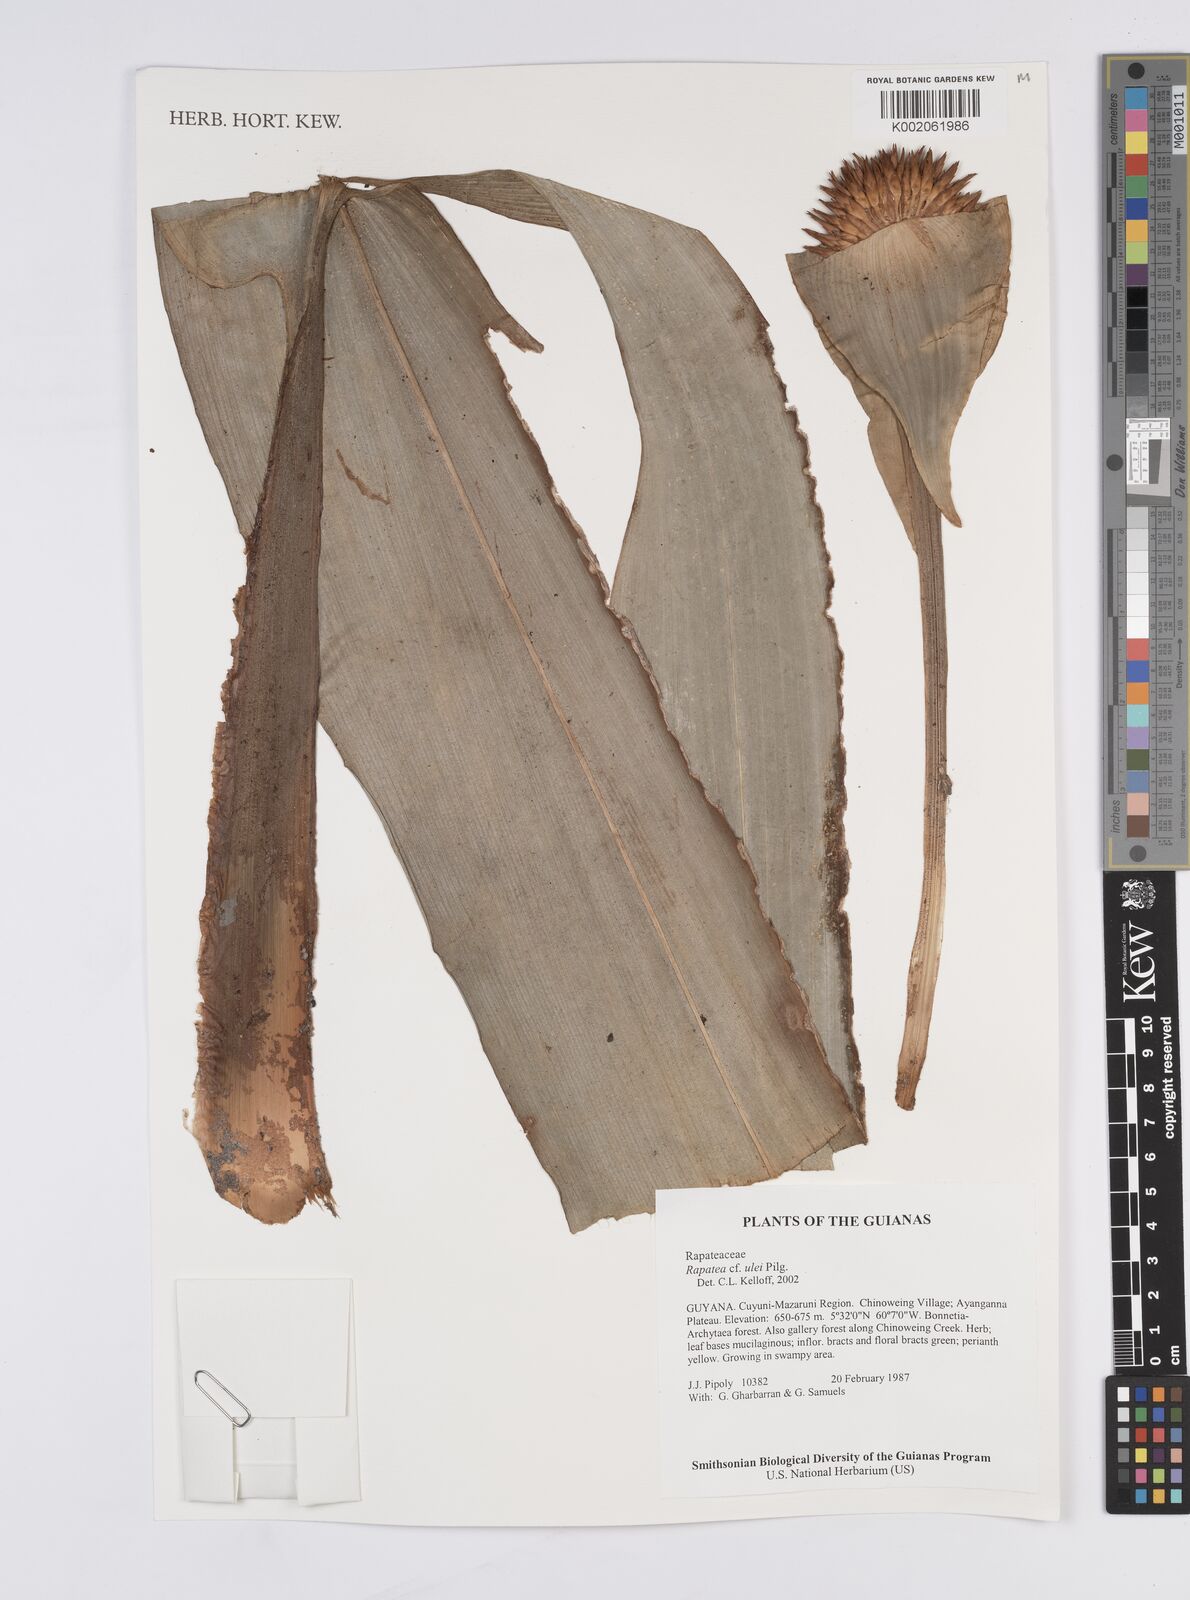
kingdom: Plantae
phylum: Tracheophyta
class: Liliopsida
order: Poales
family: Rapateaceae
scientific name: Rapateaceae
